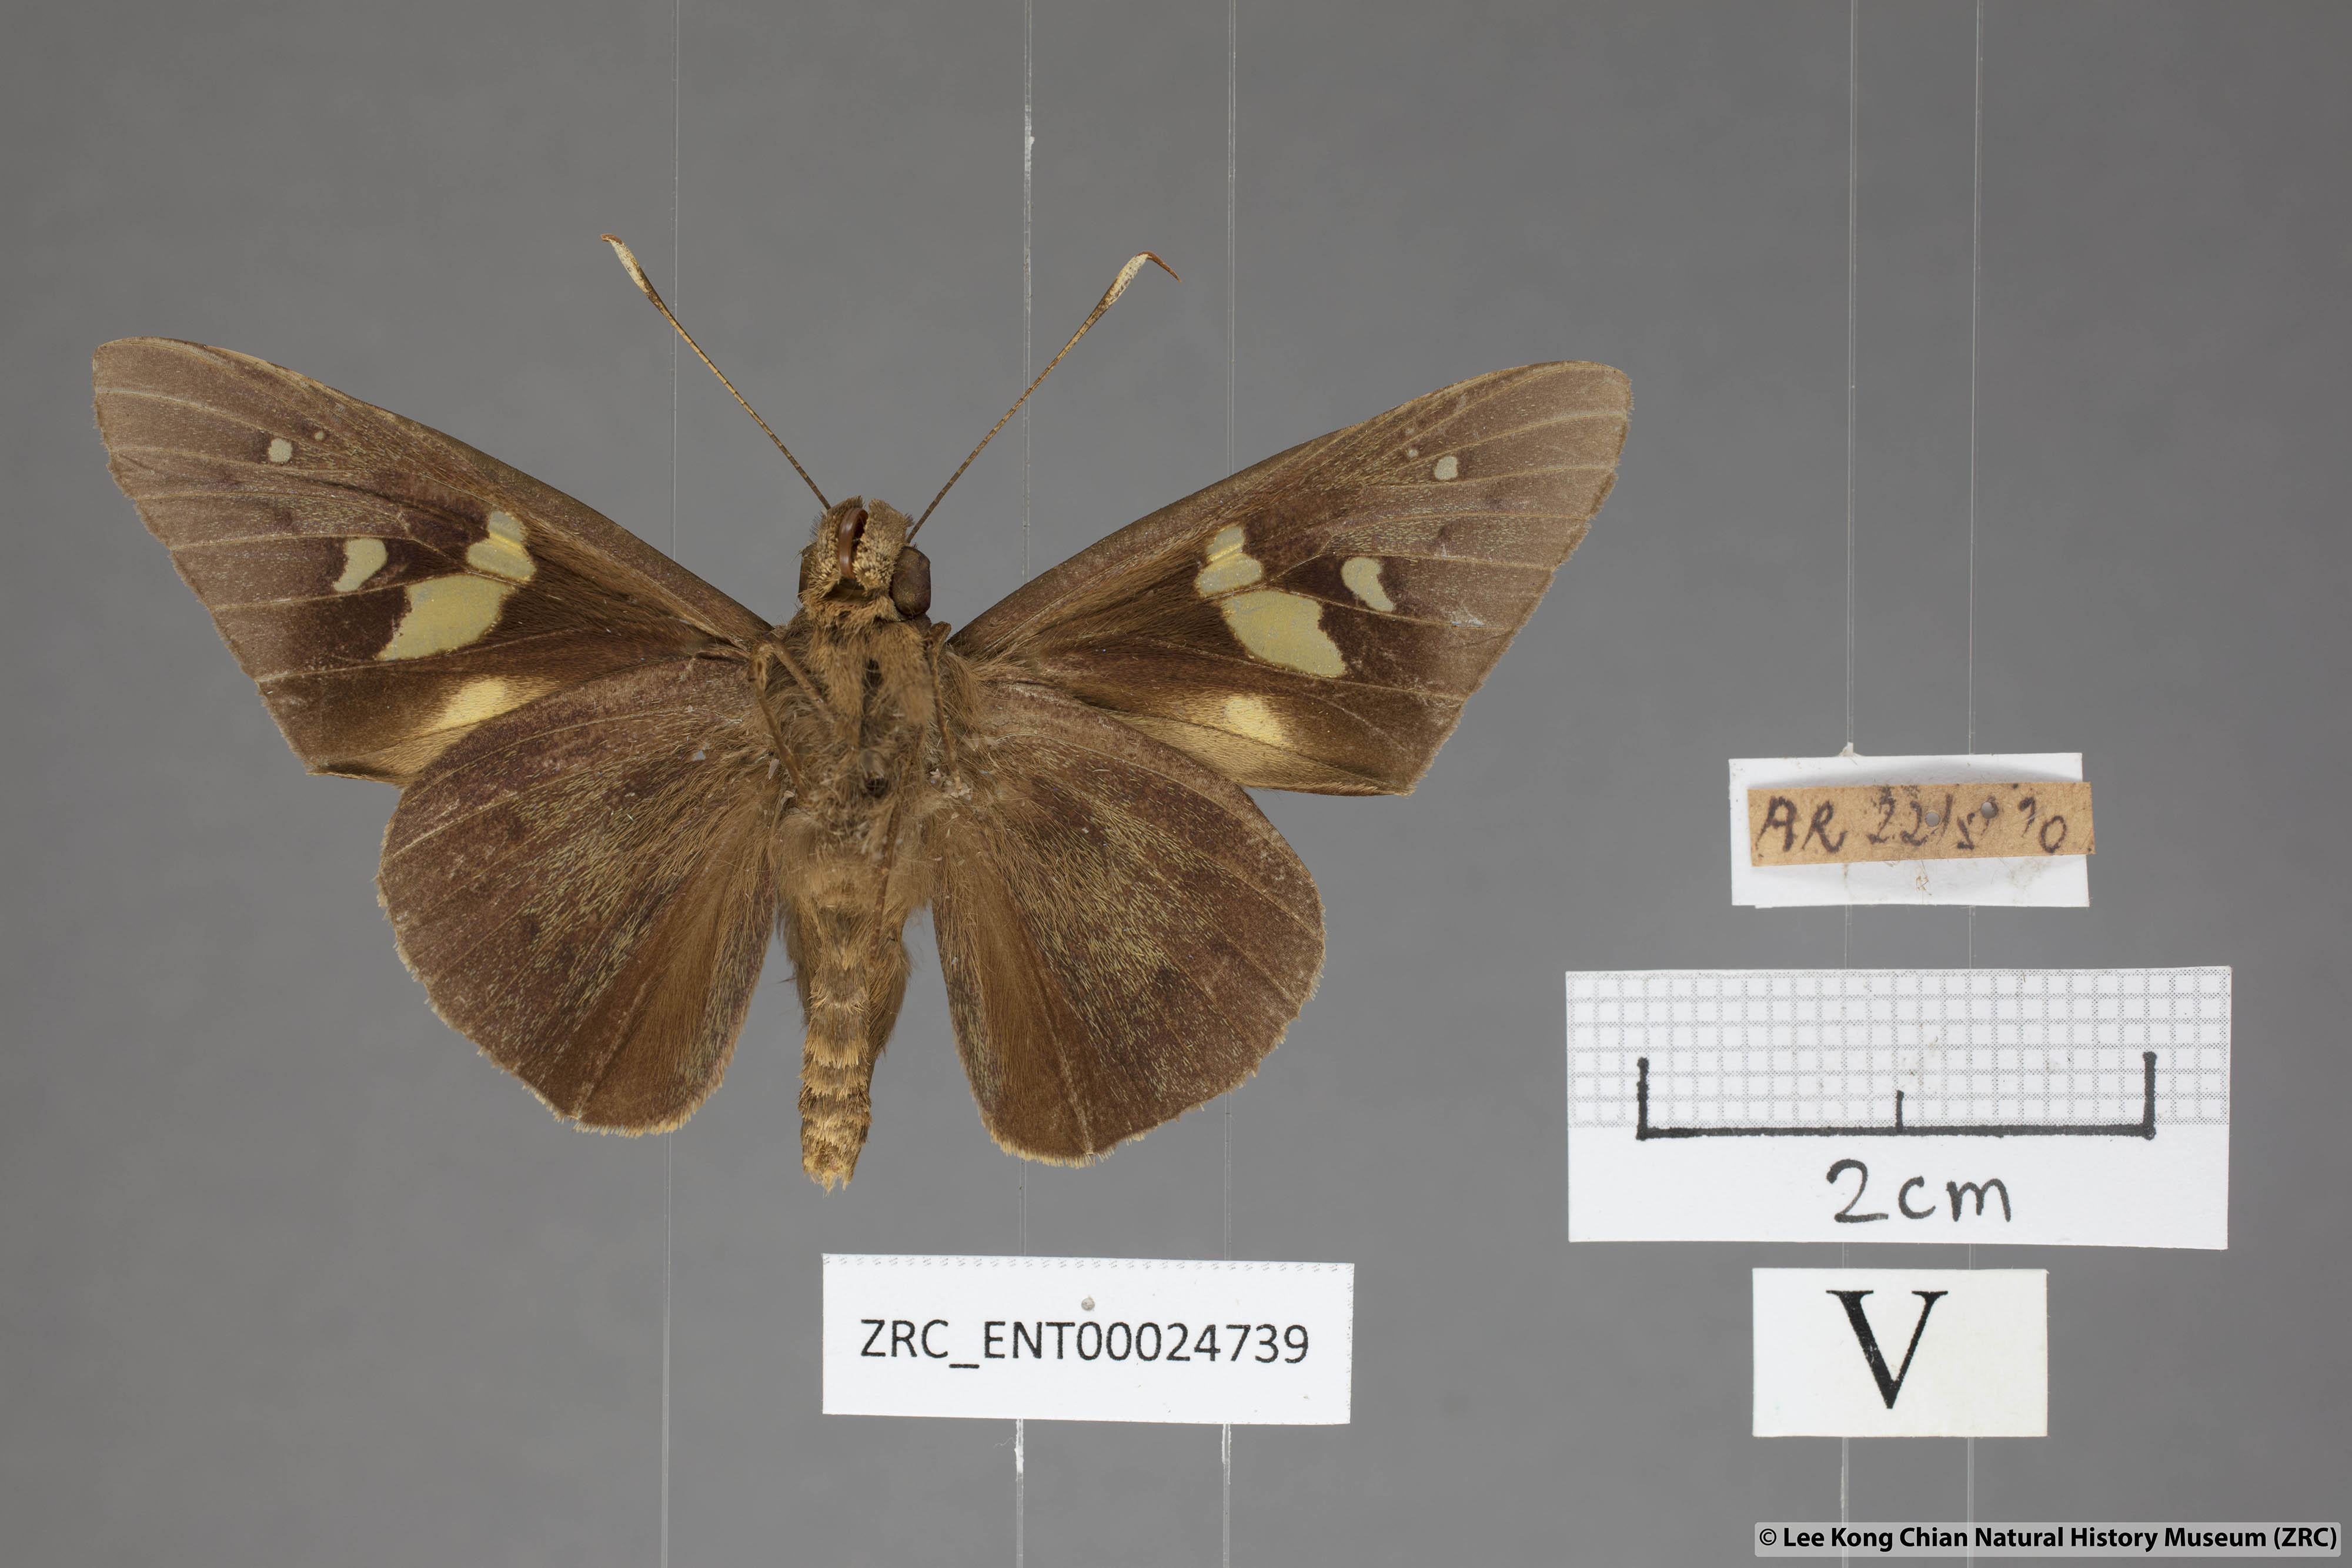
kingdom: Animalia
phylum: Arthropoda
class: Insecta
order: Lepidoptera
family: Hesperiidae
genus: Hidari
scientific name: Hidari doesoena
